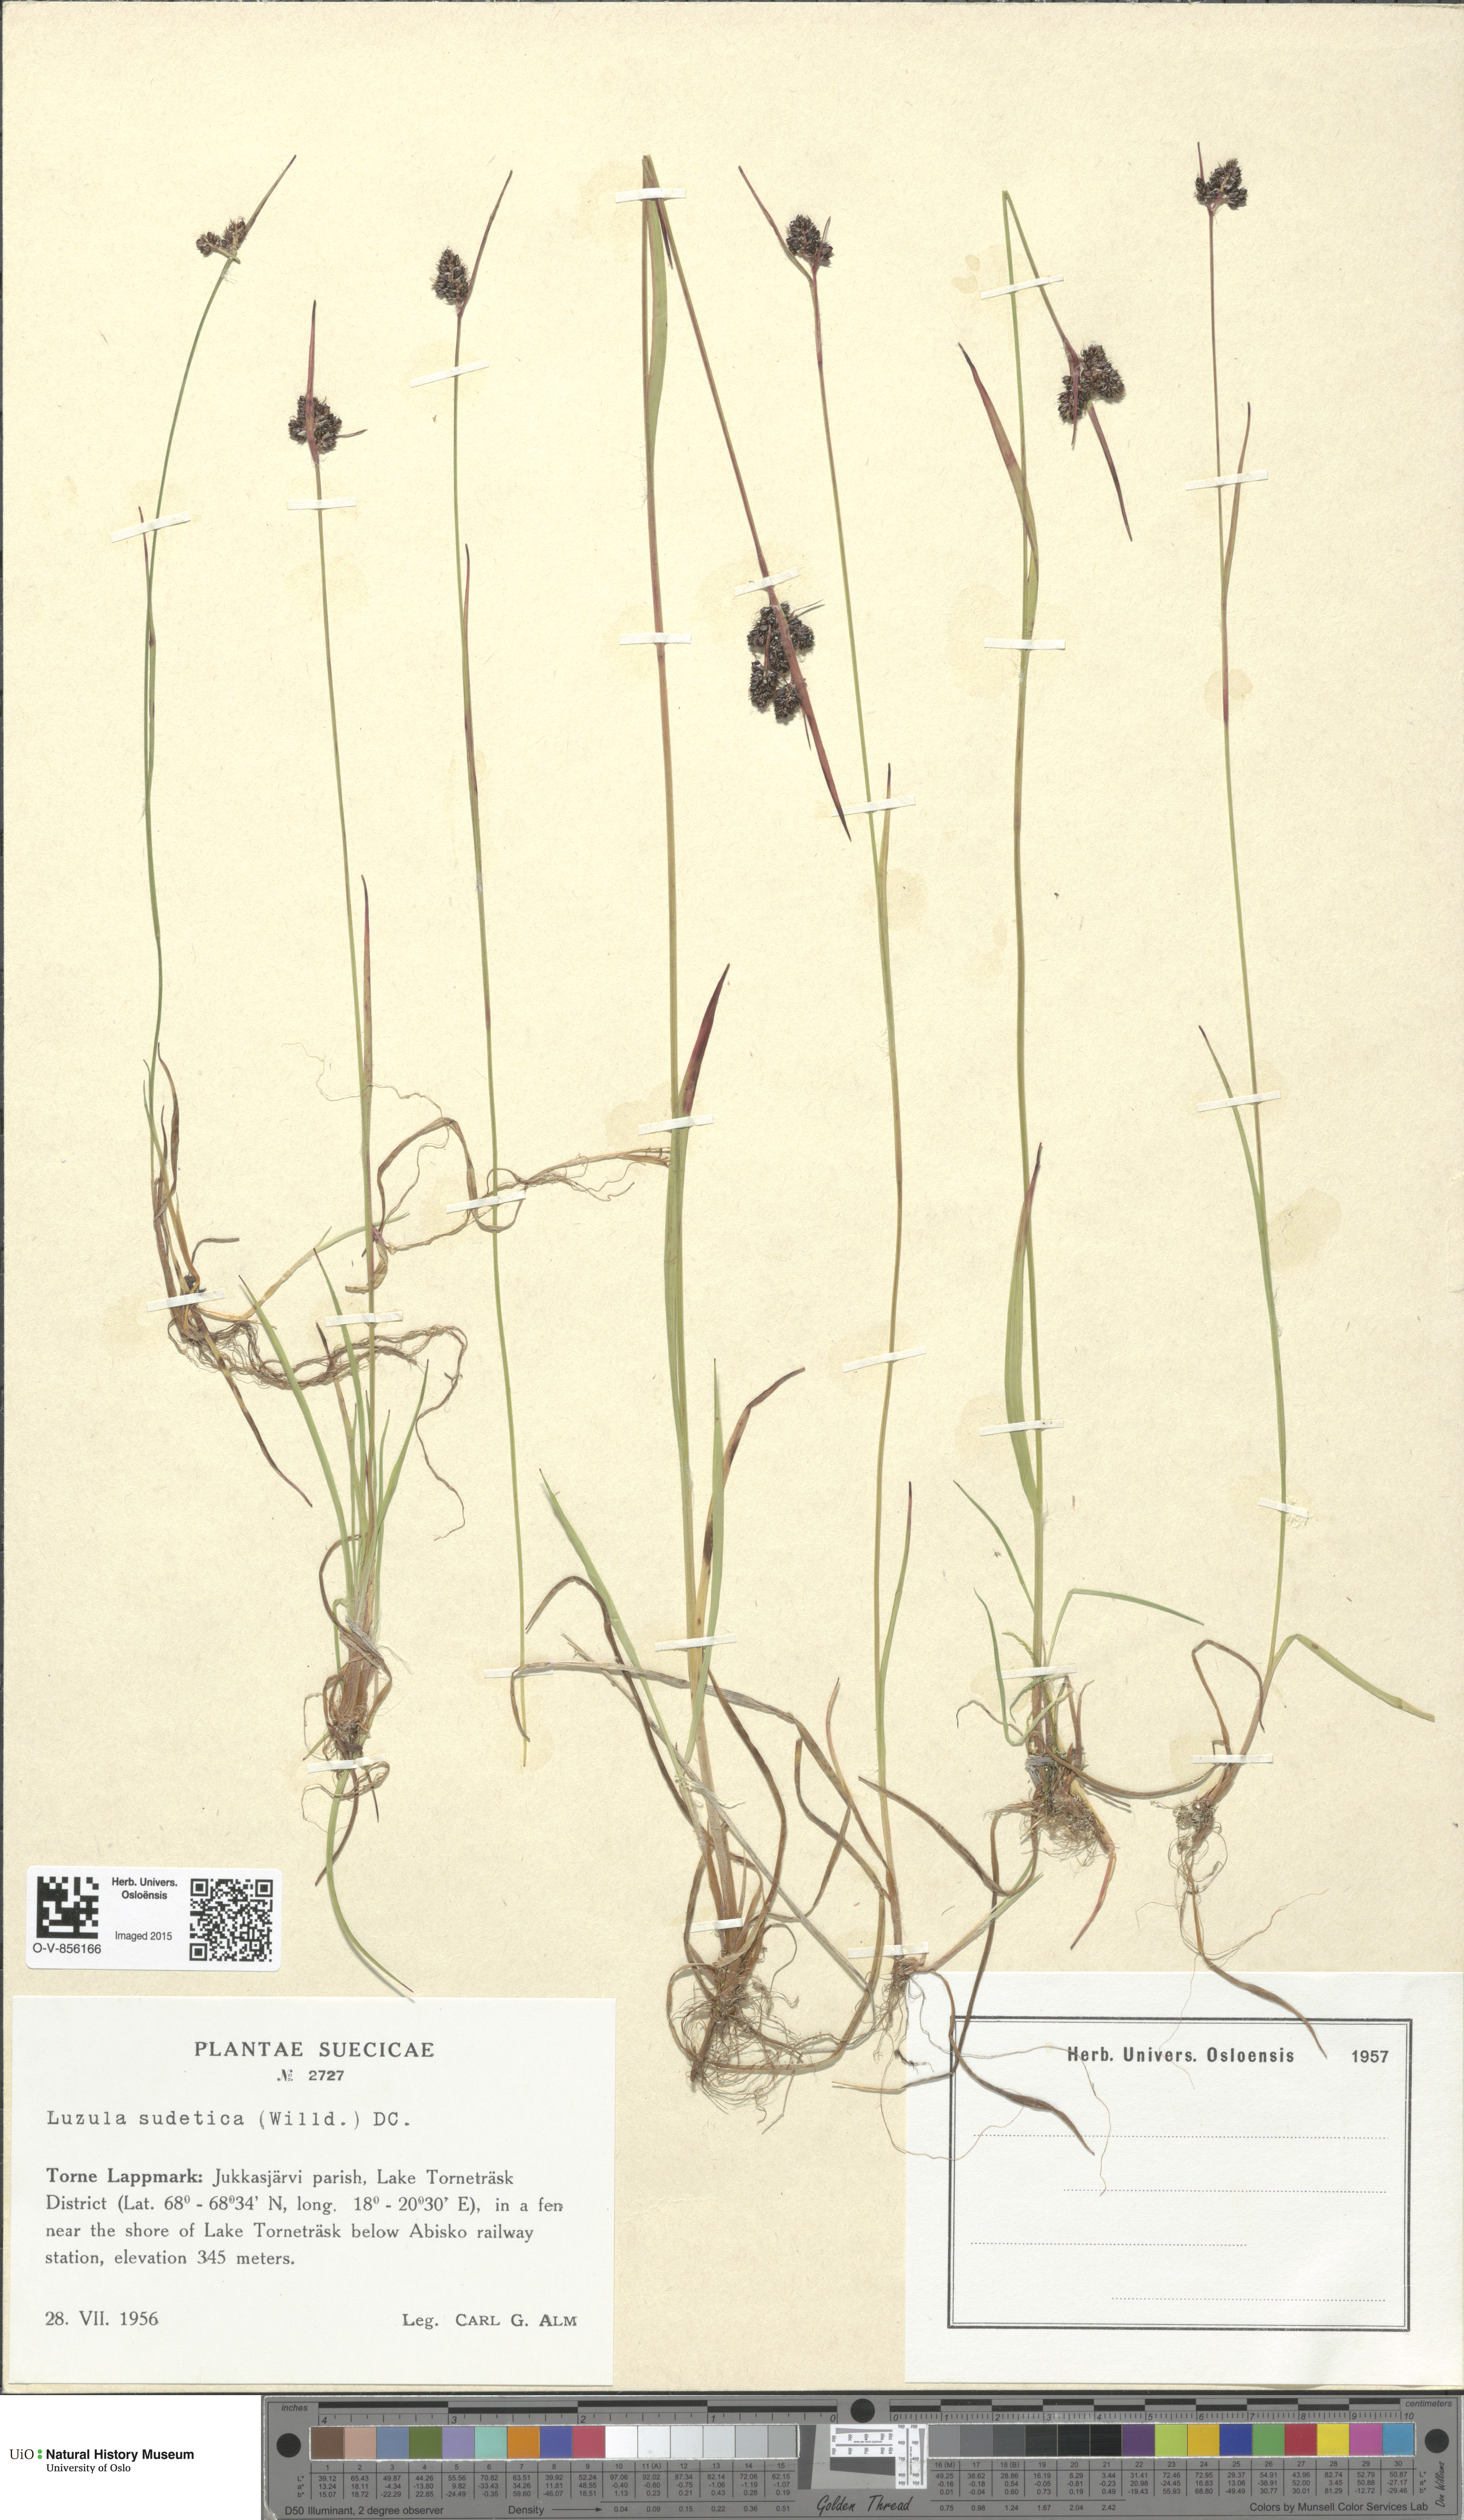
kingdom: Plantae
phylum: Tracheophyta
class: Liliopsida
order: Poales
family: Juncaceae
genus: Luzula
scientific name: Luzula sudetica
